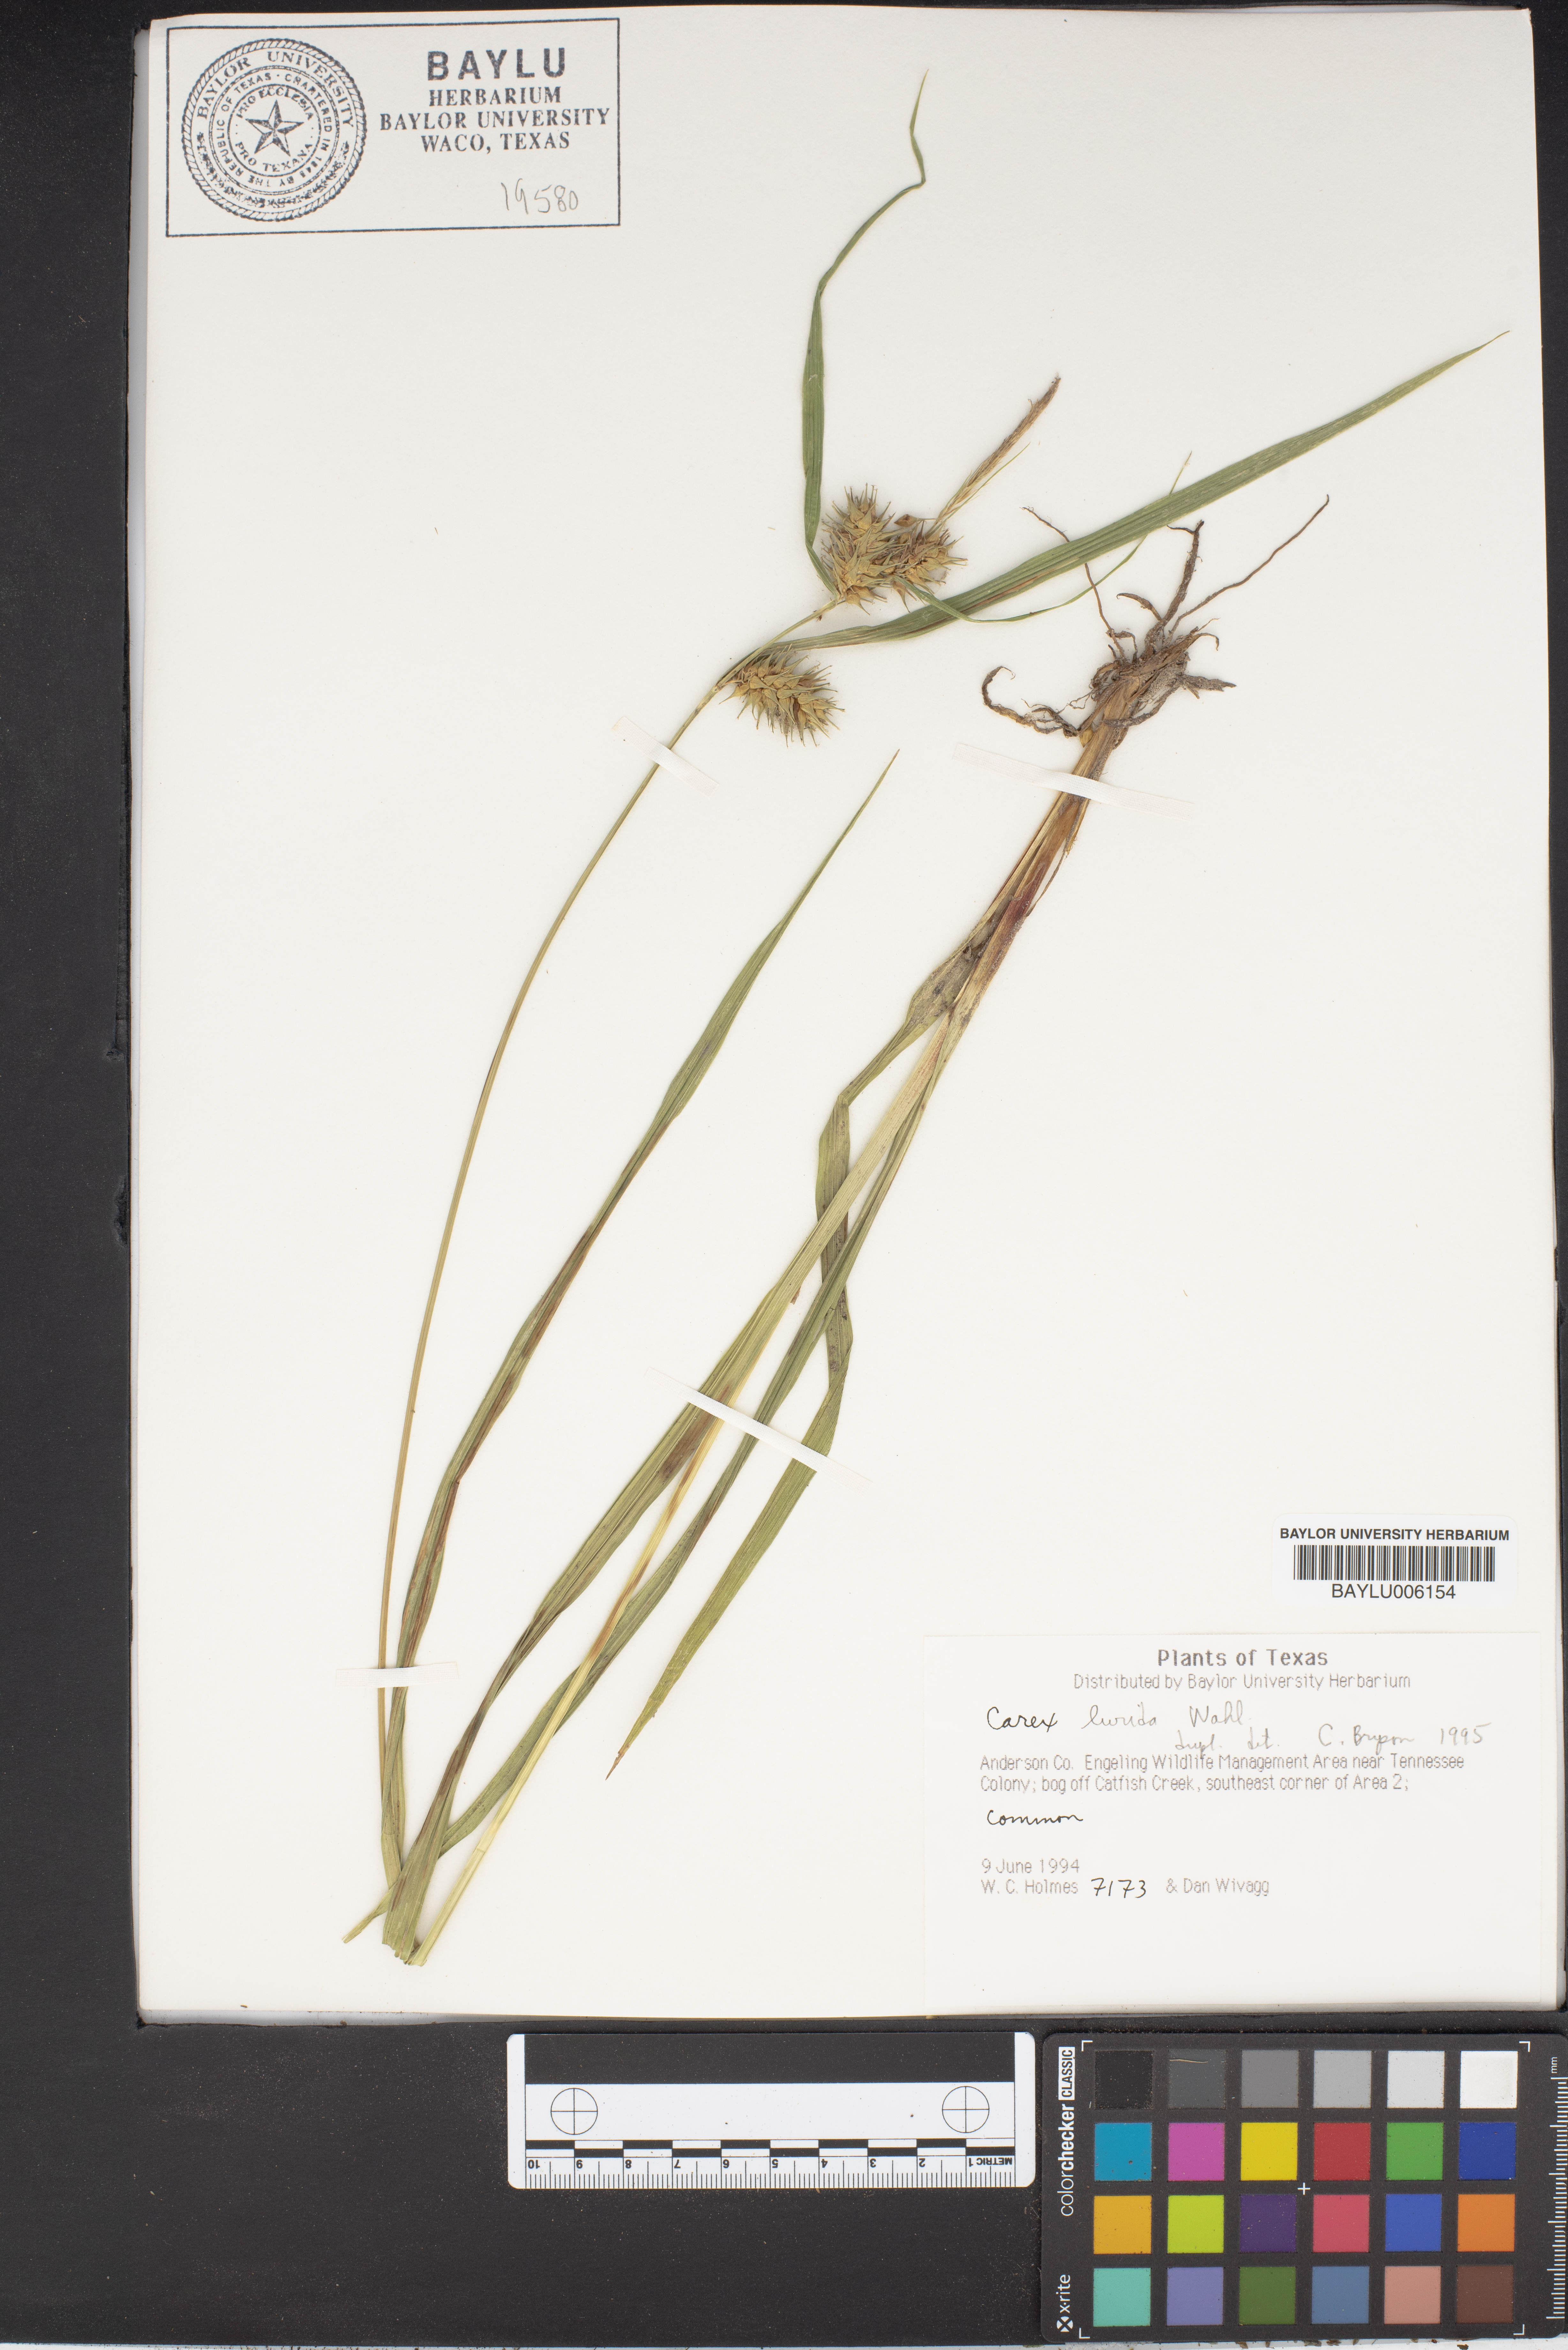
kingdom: Plantae
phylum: Tracheophyta
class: Liliopsida
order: Poales
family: Cyperaceae
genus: Carex
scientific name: Carex lurida
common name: Sallow sedge
